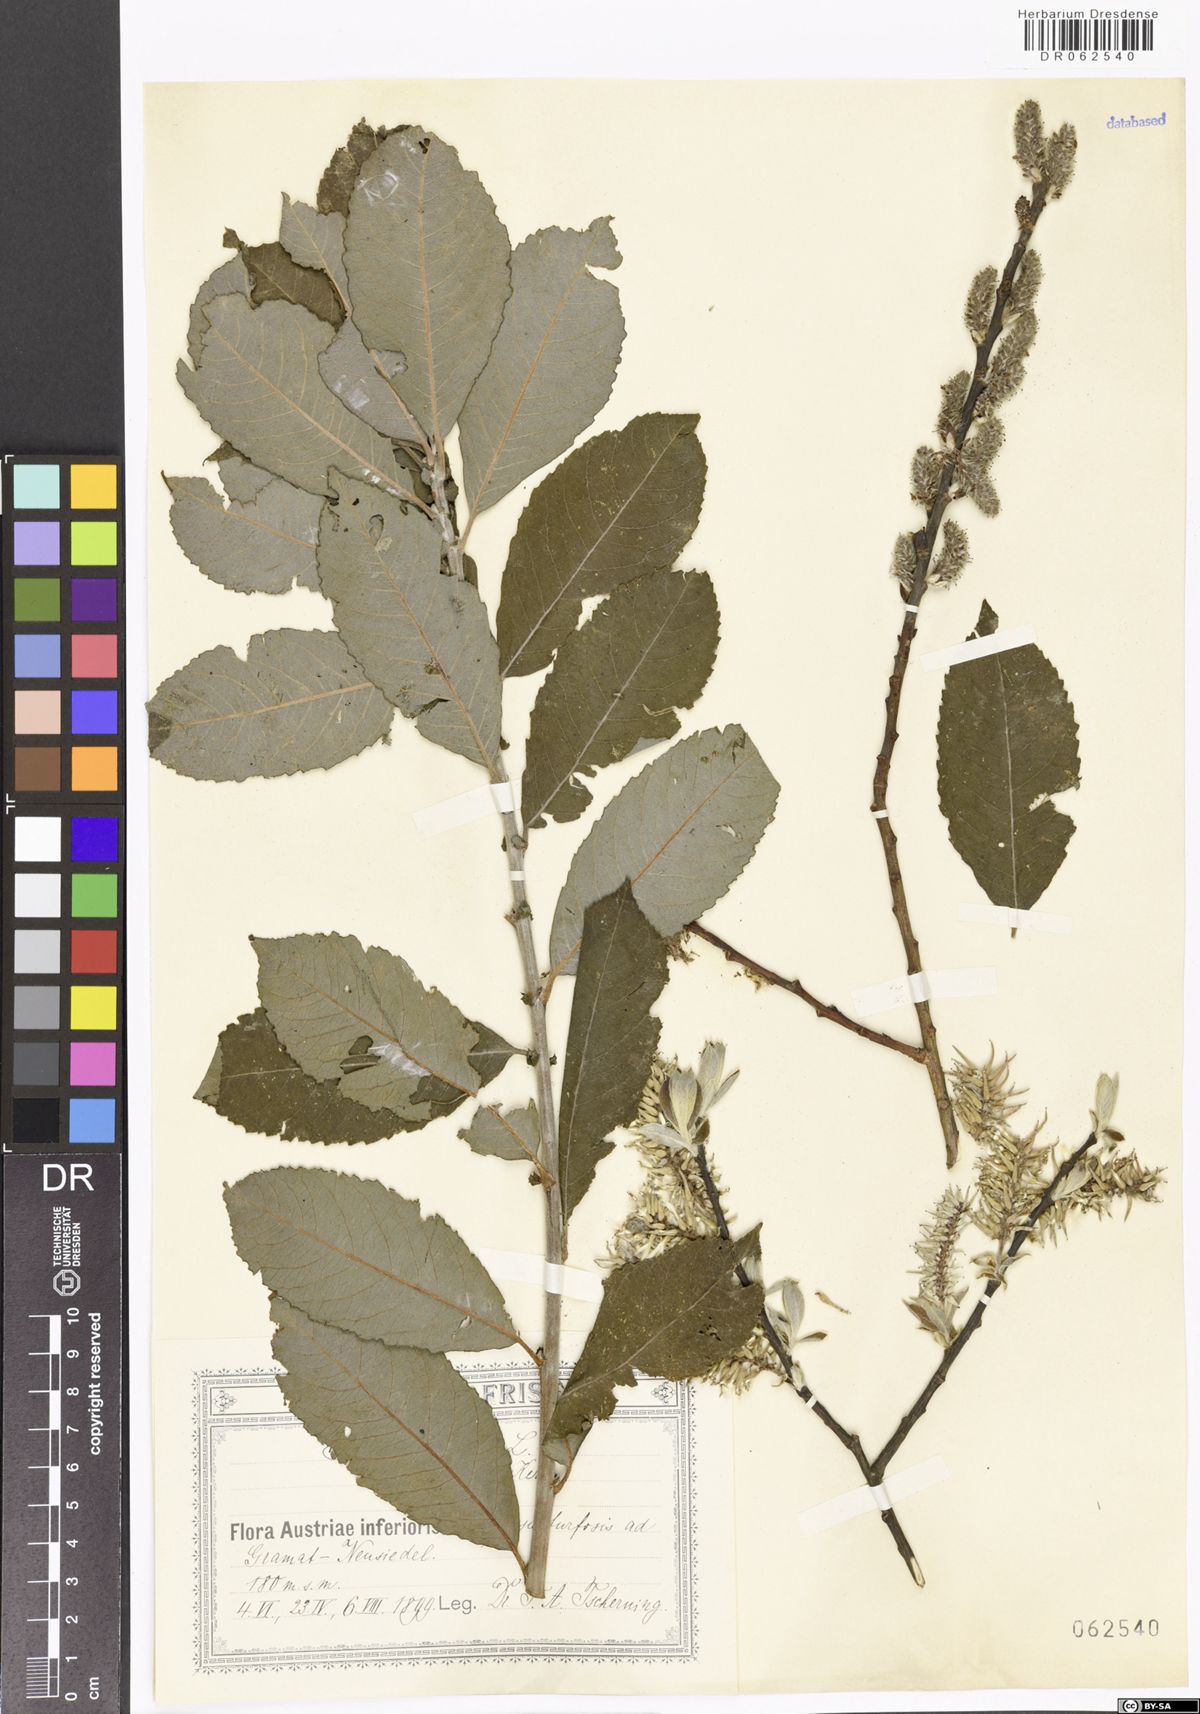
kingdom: Plantae
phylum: Tracheophyta
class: Magnoliopsida
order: Malpighiales
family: Salicaceae
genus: Salix
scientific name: Salix cinerea
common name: Common sallow
